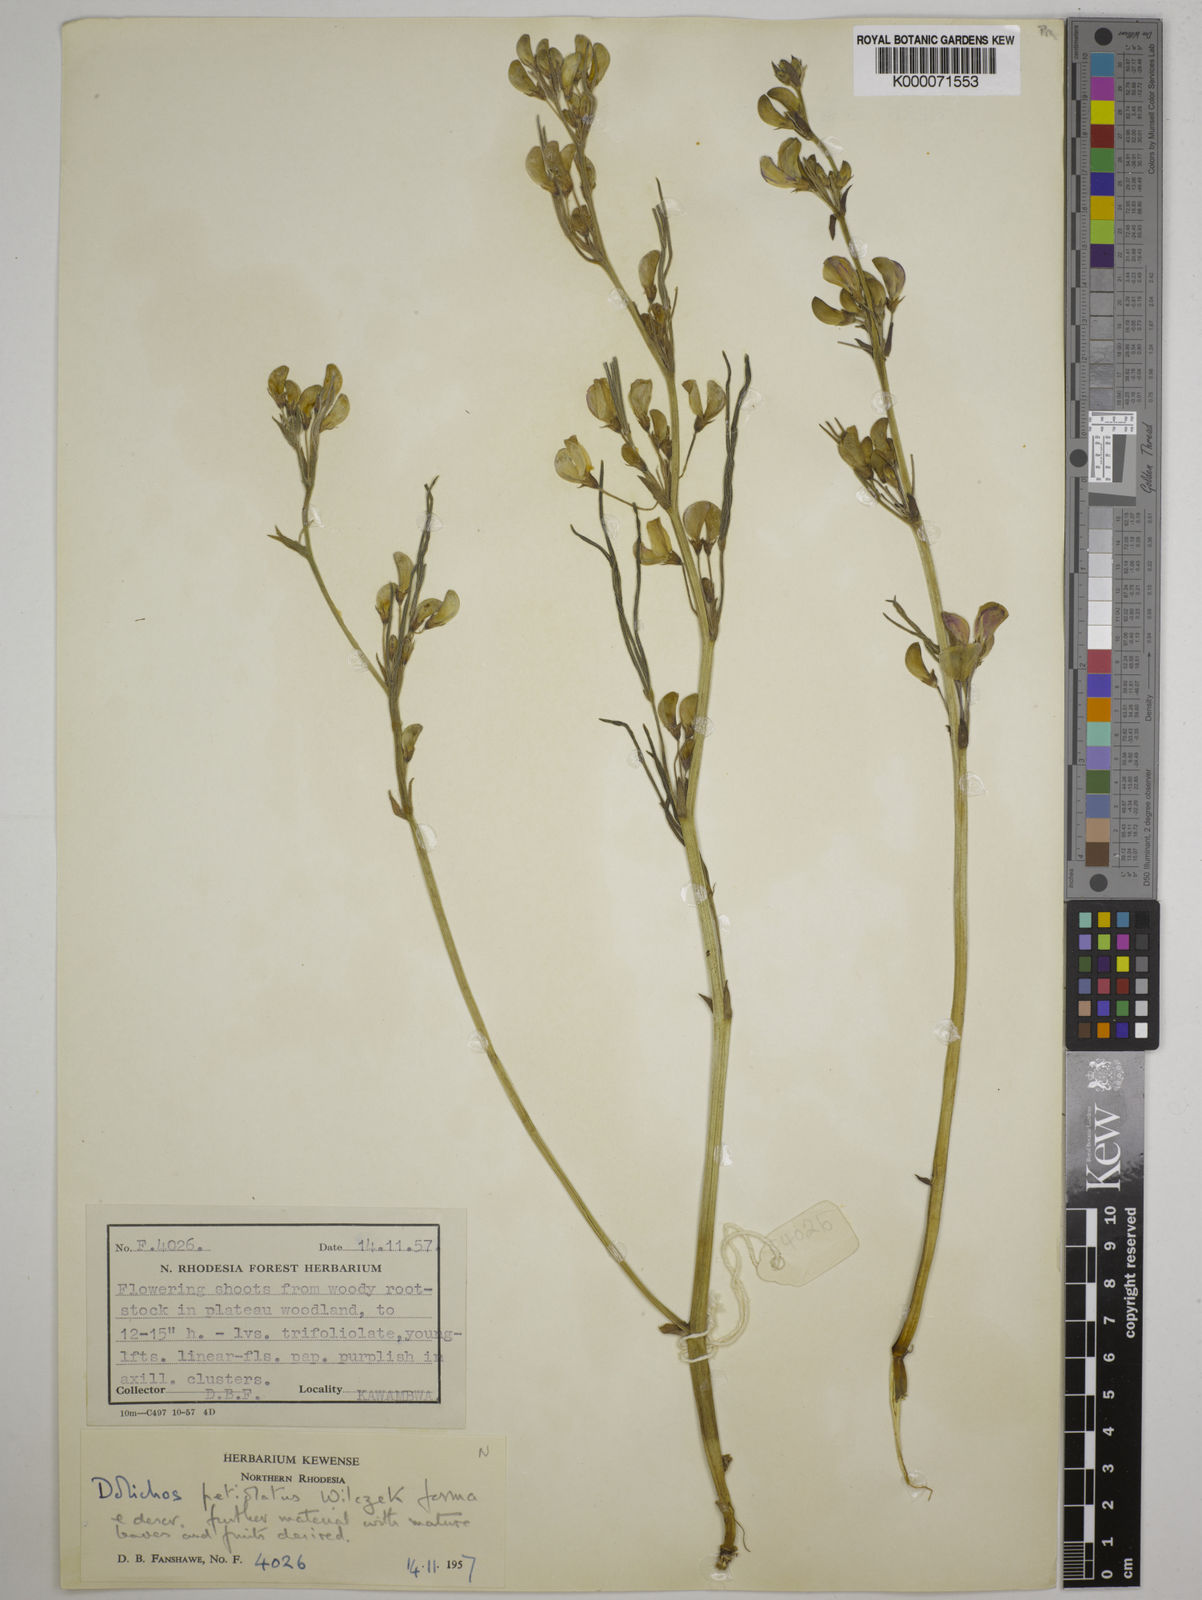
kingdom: Plantae
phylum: Tracheophyta
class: Magnoliopsida
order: Fabales
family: Fabaceae
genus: Dolichos
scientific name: Dolichos petiolatus
